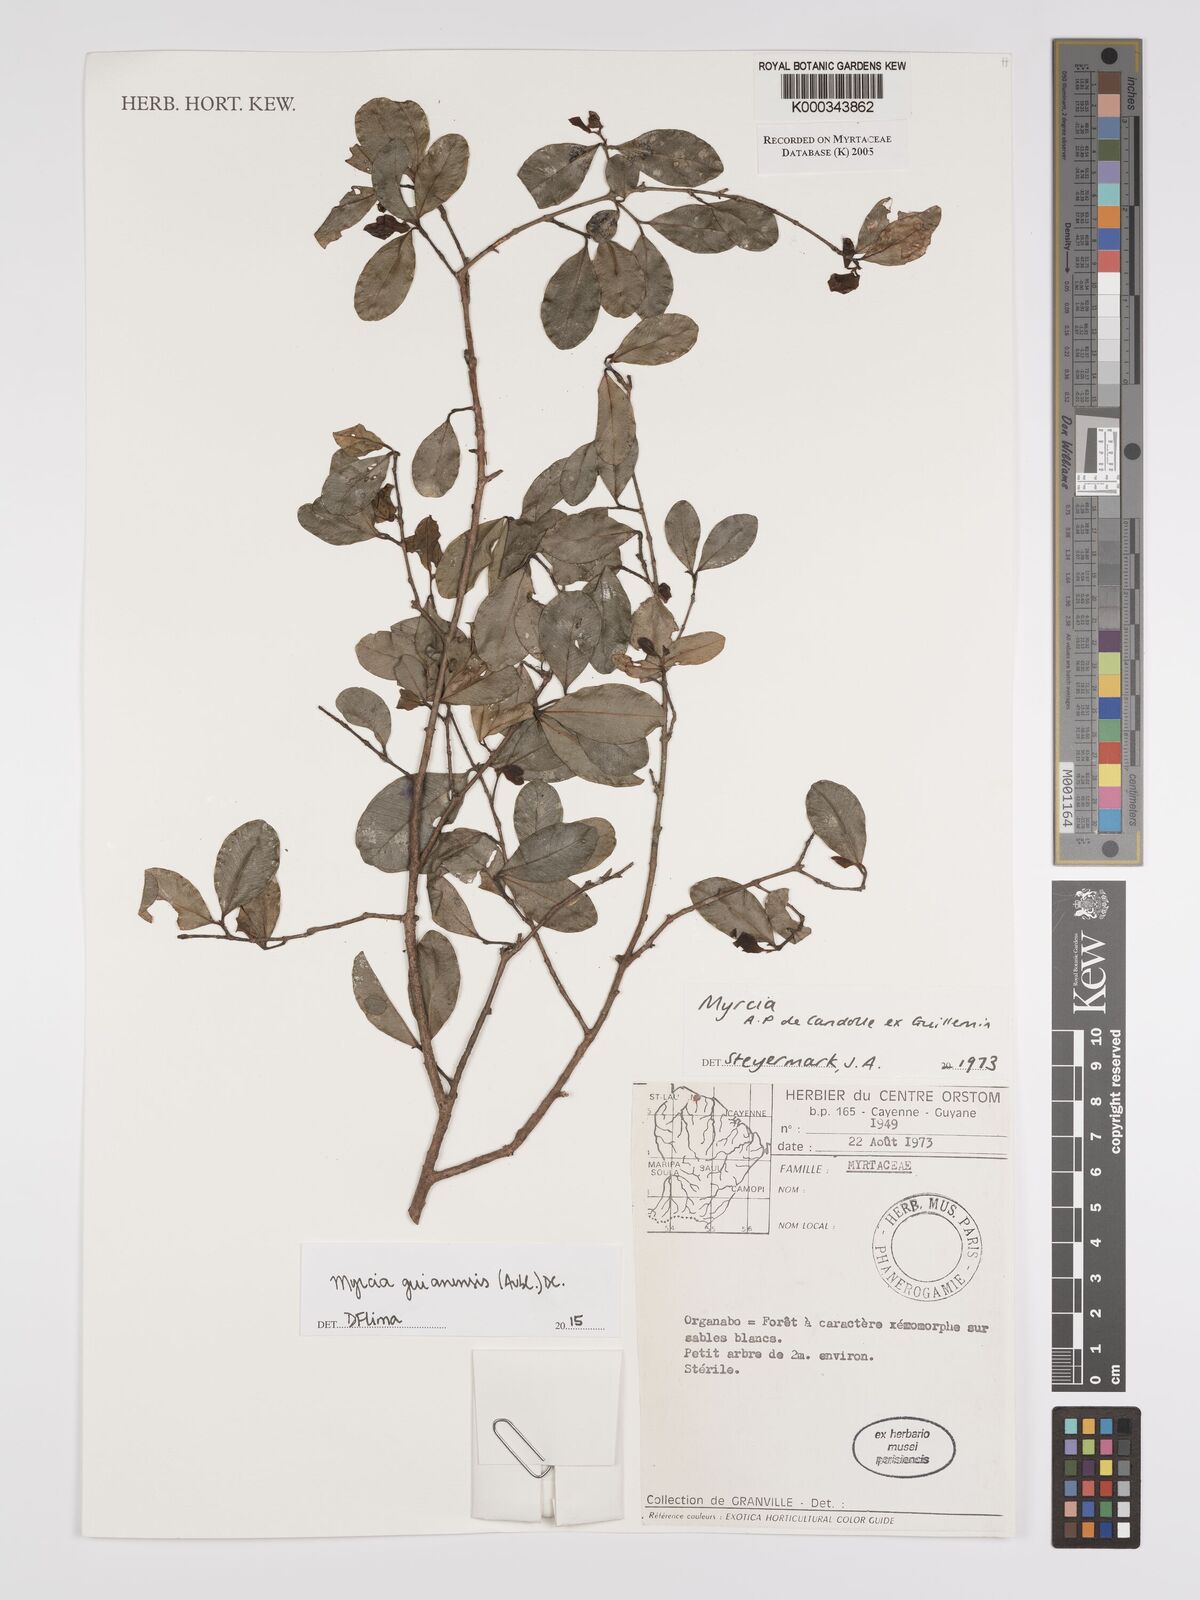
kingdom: Plantae
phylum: Tracheophyta
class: Magnoliopsida
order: Myrtales
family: Myrtaceae
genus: Myrcia
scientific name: Myrcia
